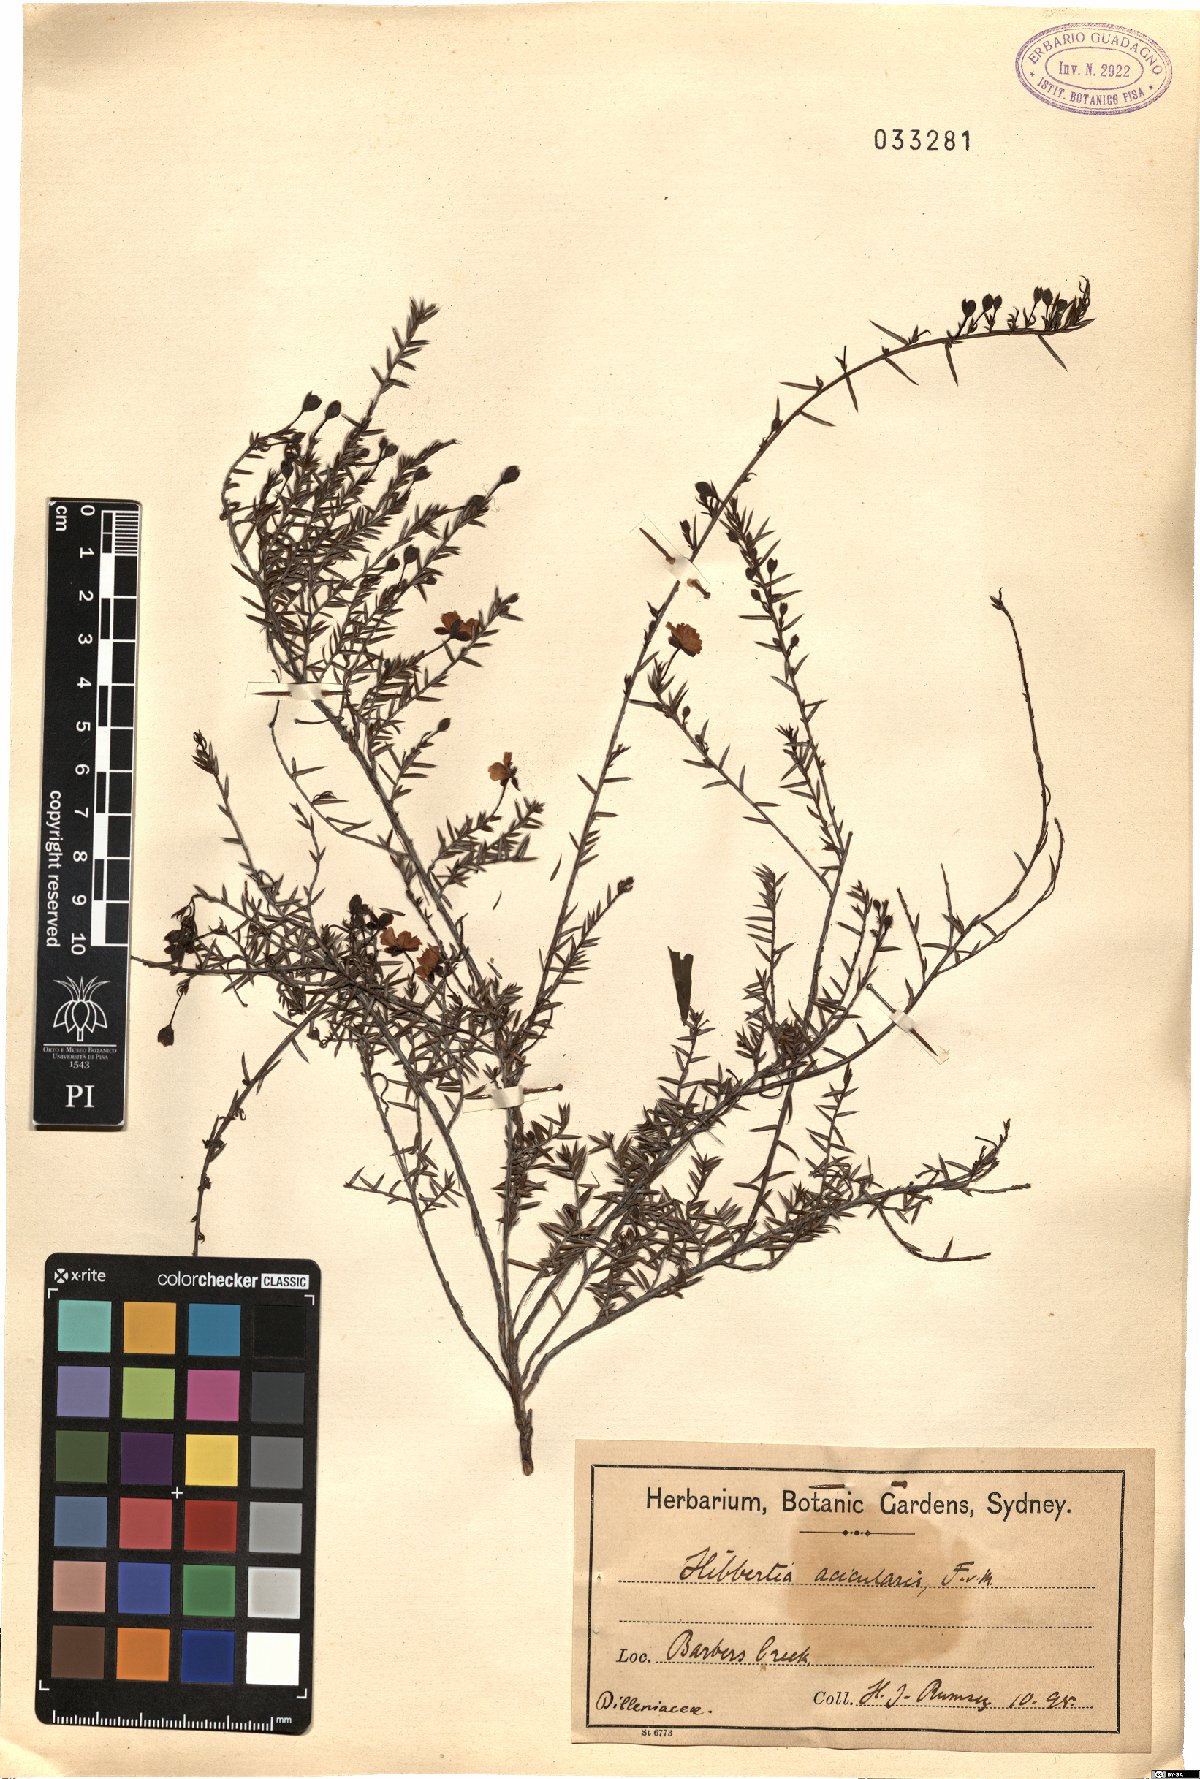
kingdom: Plantae
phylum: Tracheophyta
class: Magnoliopsida
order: Dilleniales
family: Dilleniaceae
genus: Hibbertia
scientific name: Hibbertia acicularis
